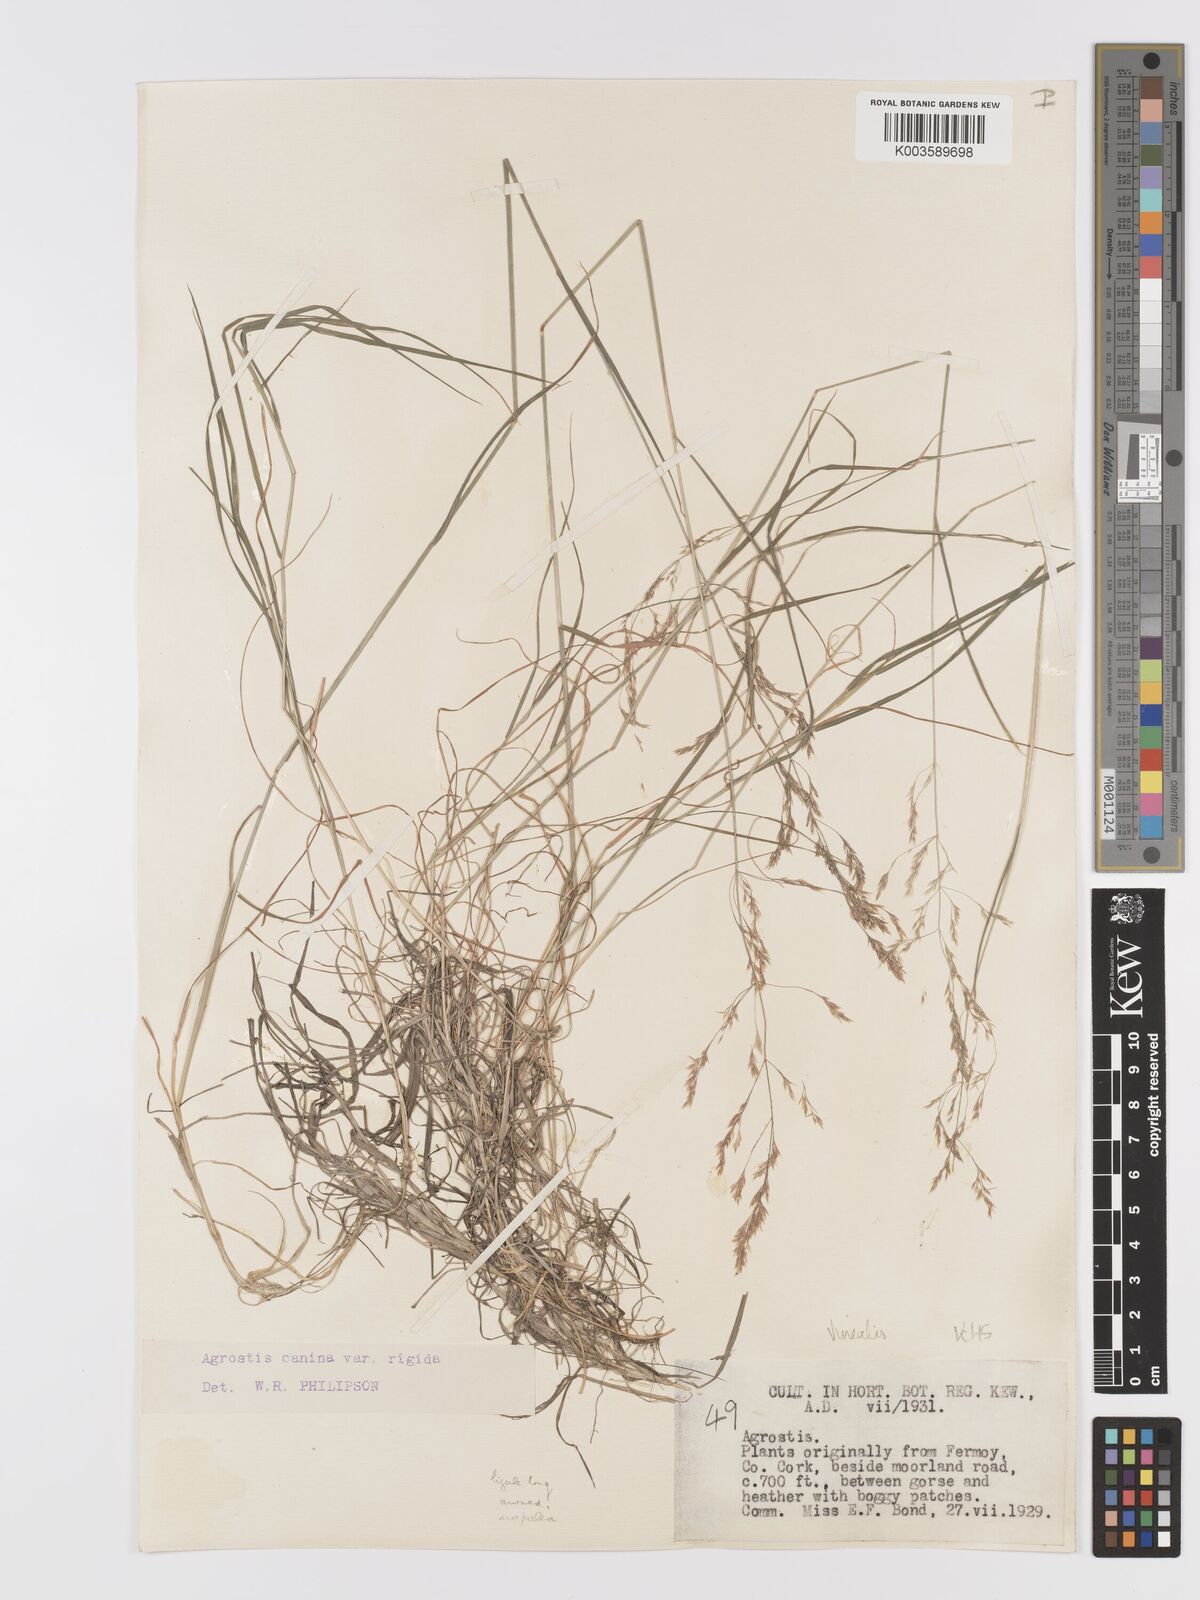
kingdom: Plantae
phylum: Tracheophyta
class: Liliopsida
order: Poales
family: Poaceae
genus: Agrostis
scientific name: Agrostis
